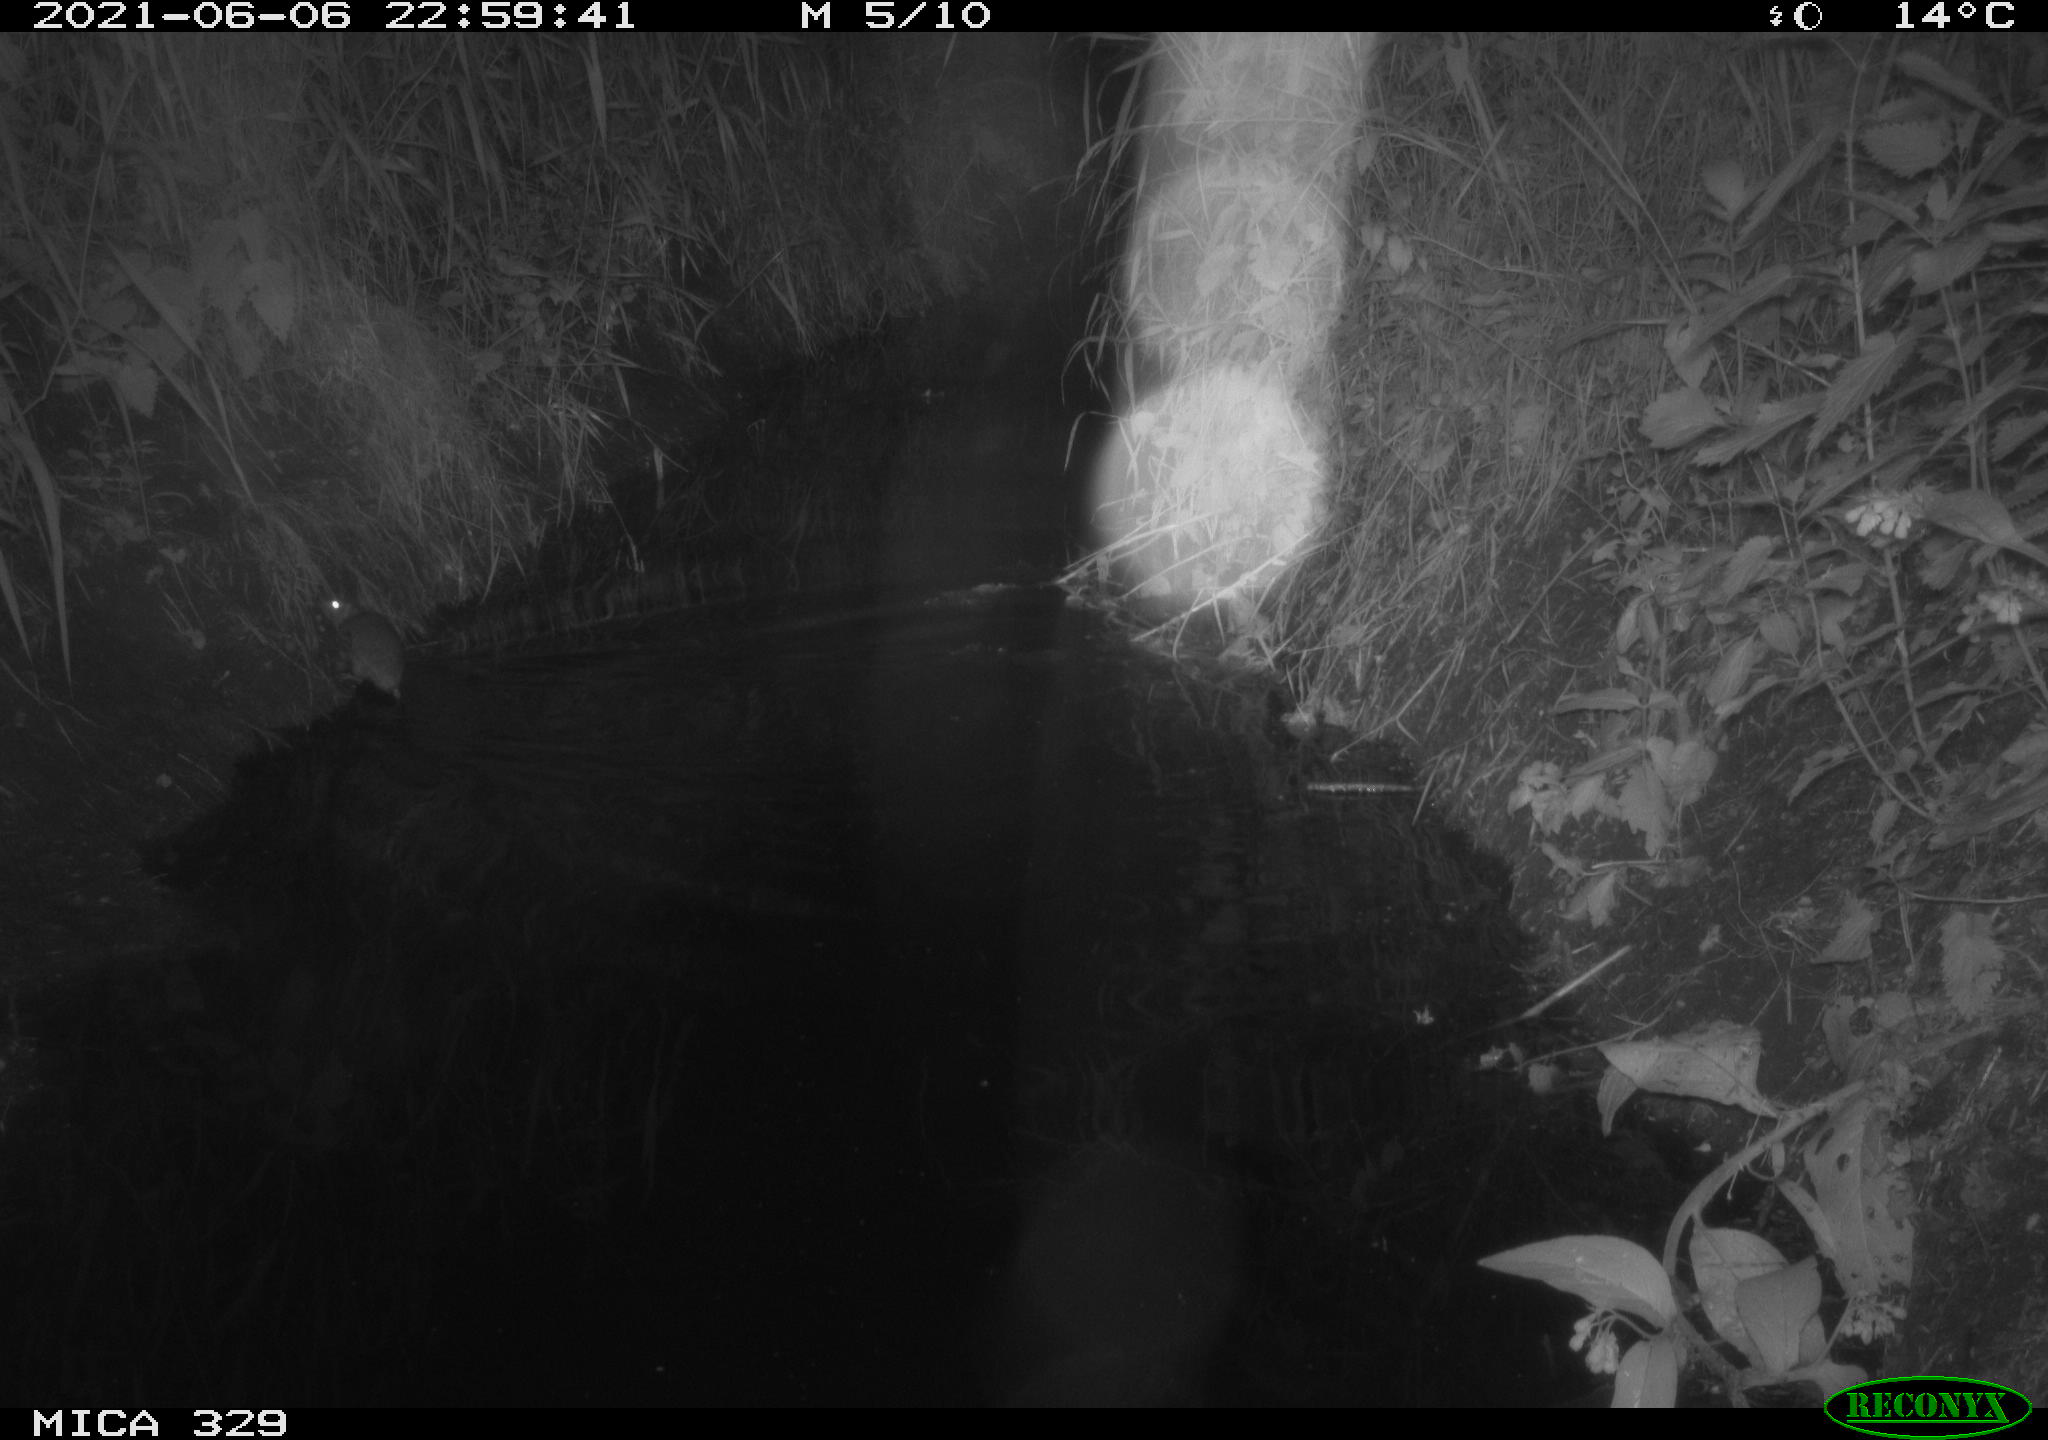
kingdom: Animalia
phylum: Chordata
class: Mammalia
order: Rodentia
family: Muridae
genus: Rattus
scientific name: Rattus norvegicus
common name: Brown rat
